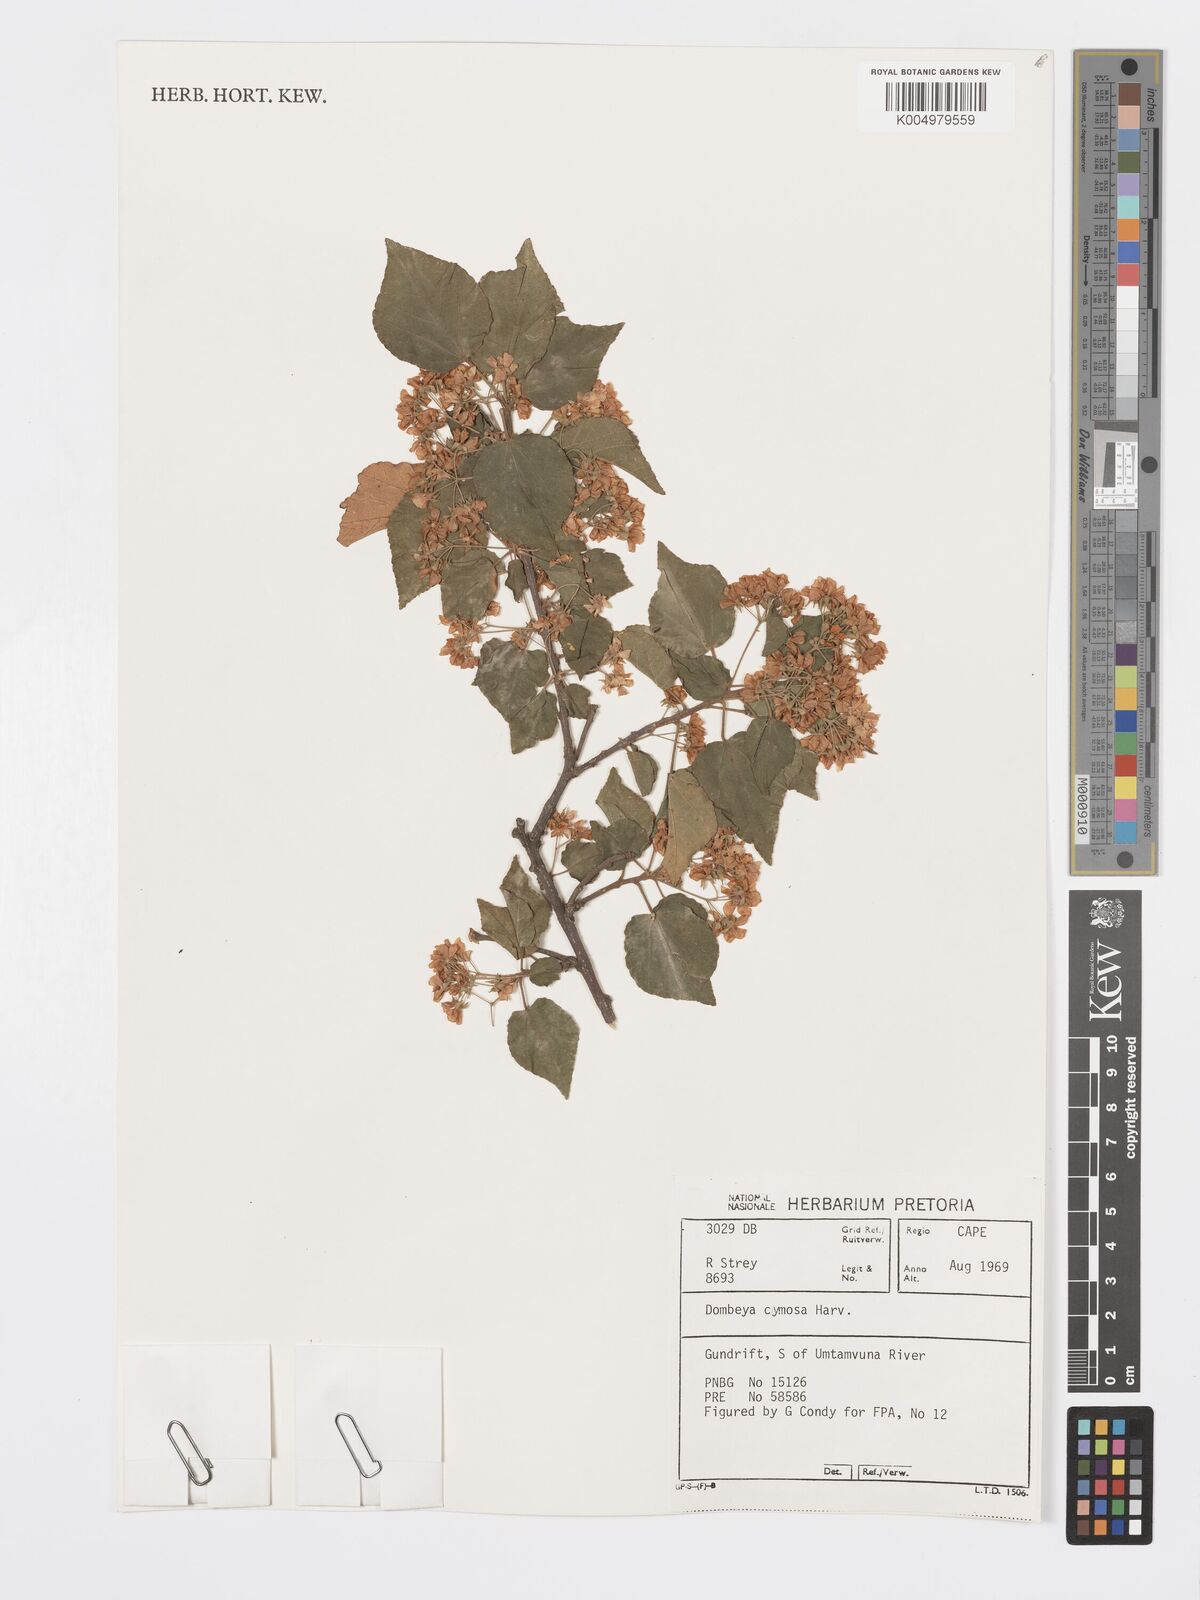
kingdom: Plantae
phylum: Tracheophyta
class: Magnoliopsida
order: Malvales
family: Malvaceae
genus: Dombeya
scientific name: Dombeya cymosa
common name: Hairless dombeya
